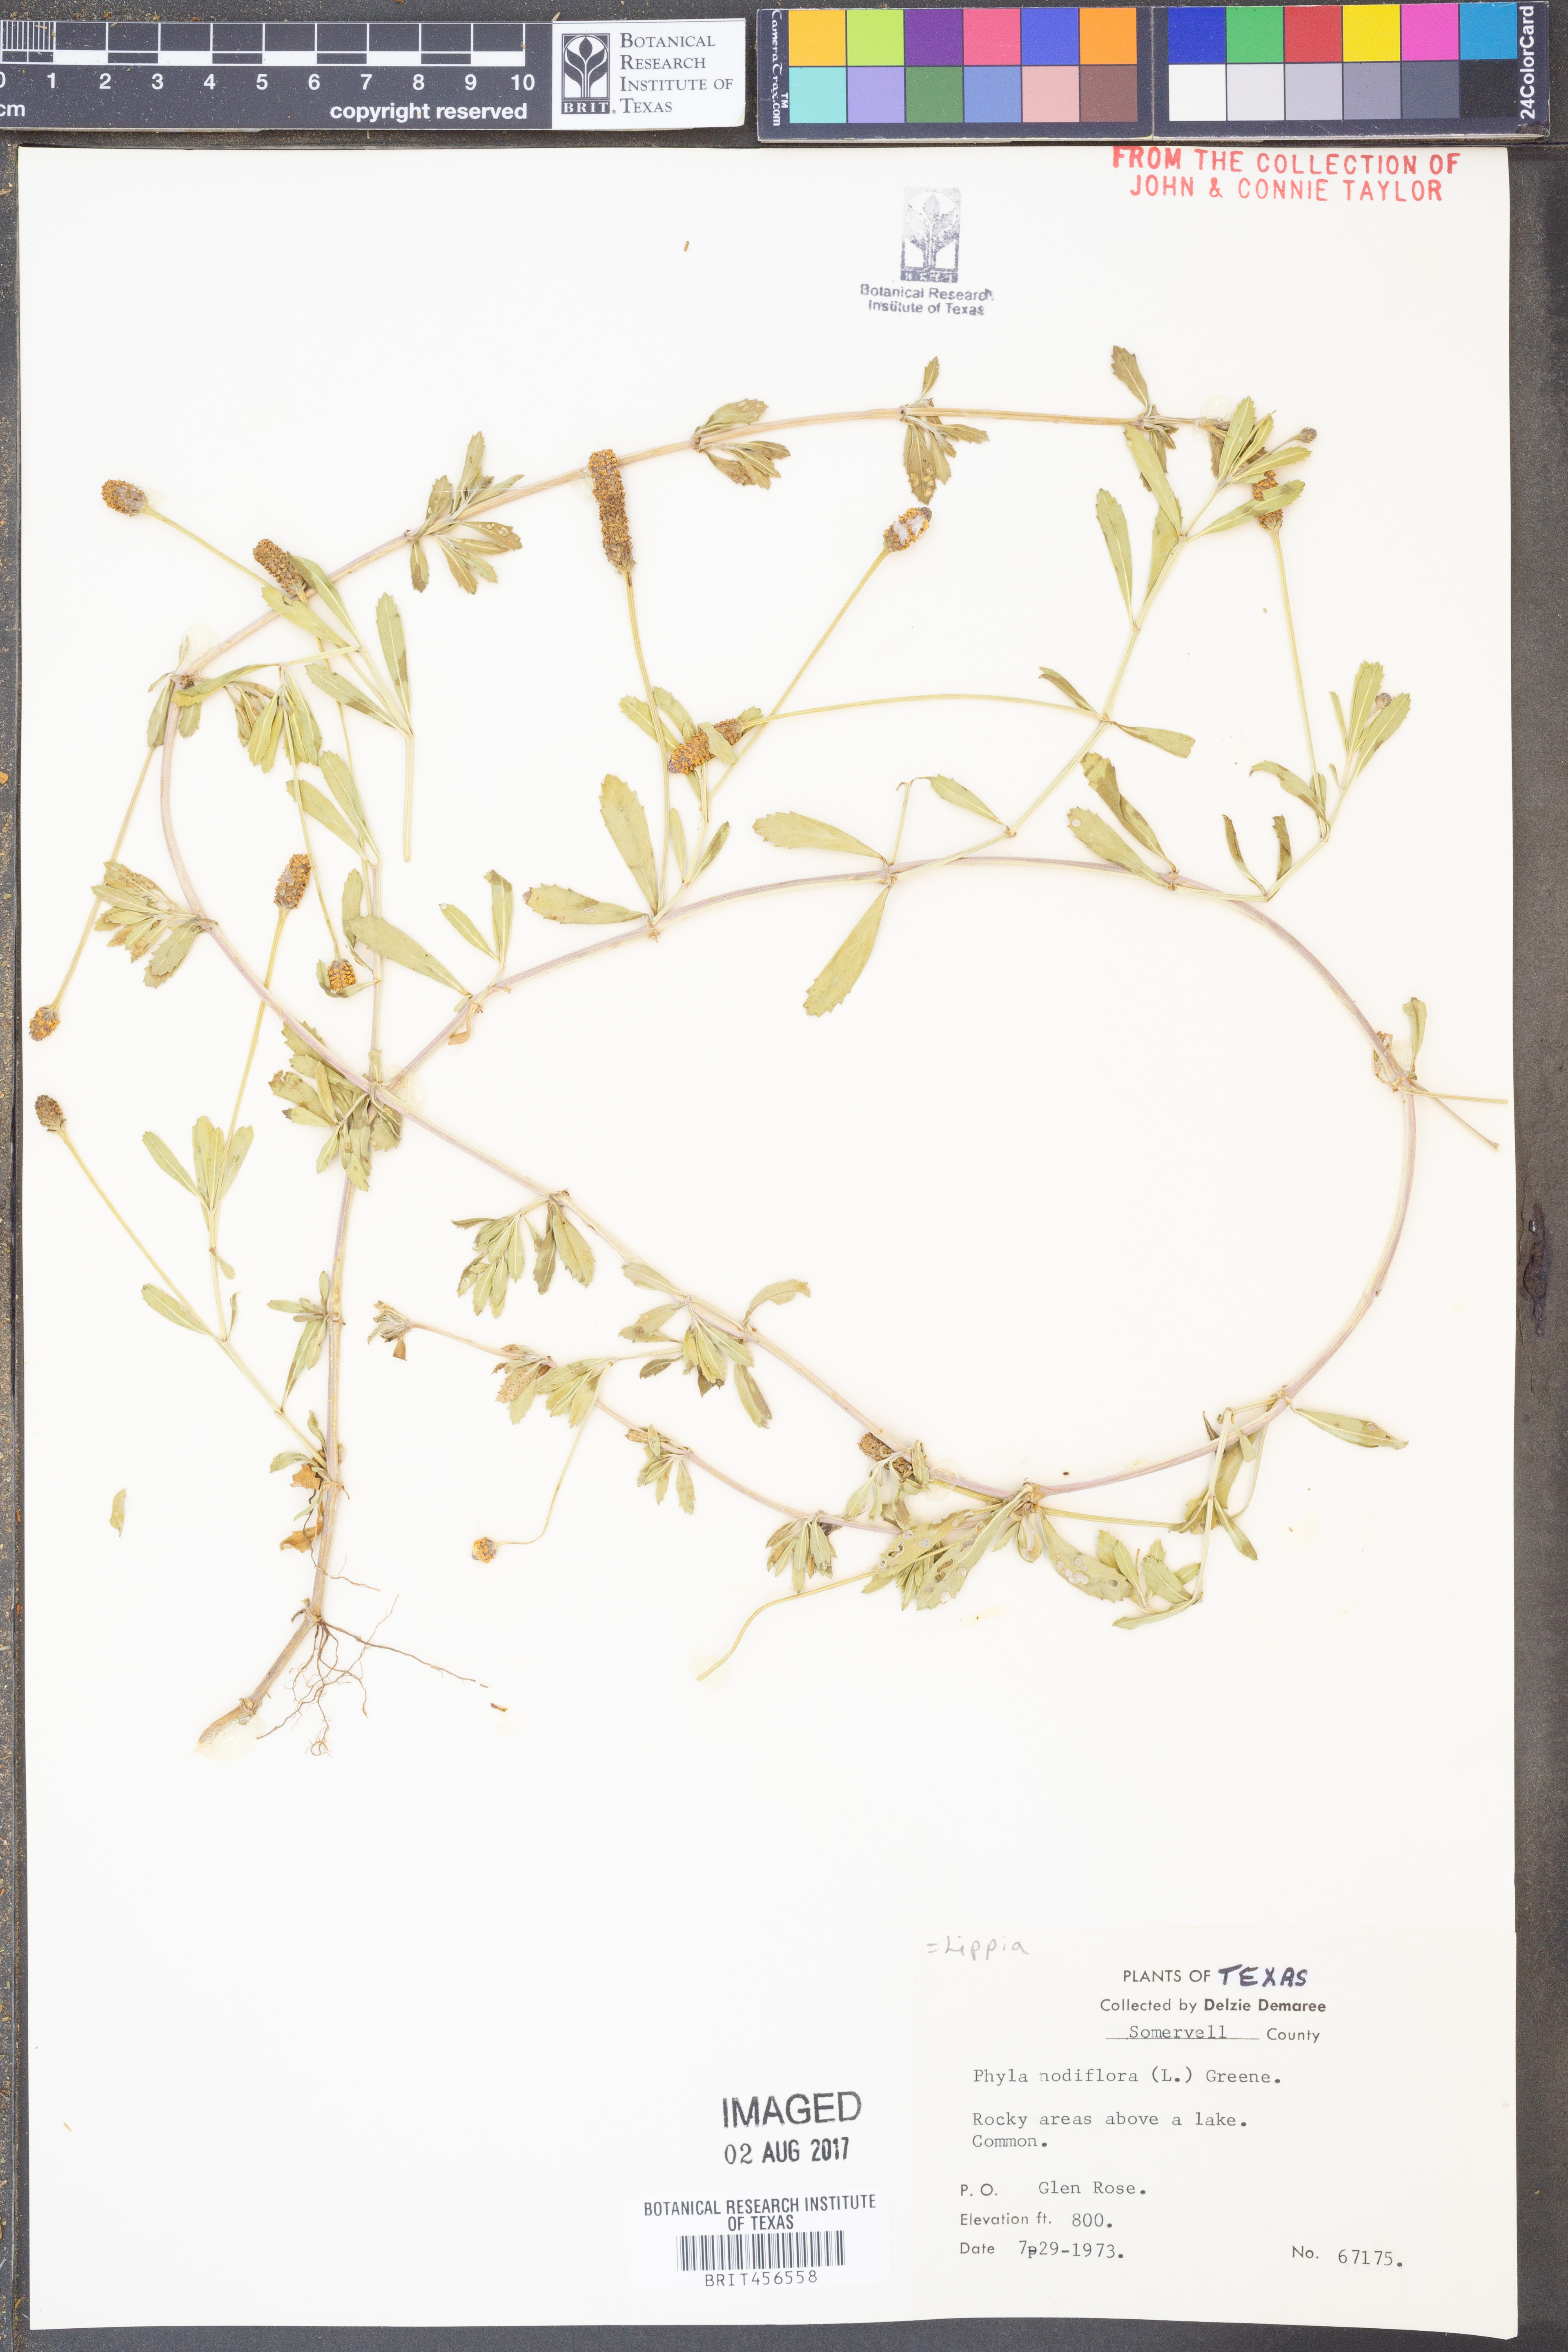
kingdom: Plantae
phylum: Tracheophyta
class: Magnoliopsida
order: Lamiales
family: Verbenaceae
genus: Phyla
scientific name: Phyla nodiflora
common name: Frogfruit
